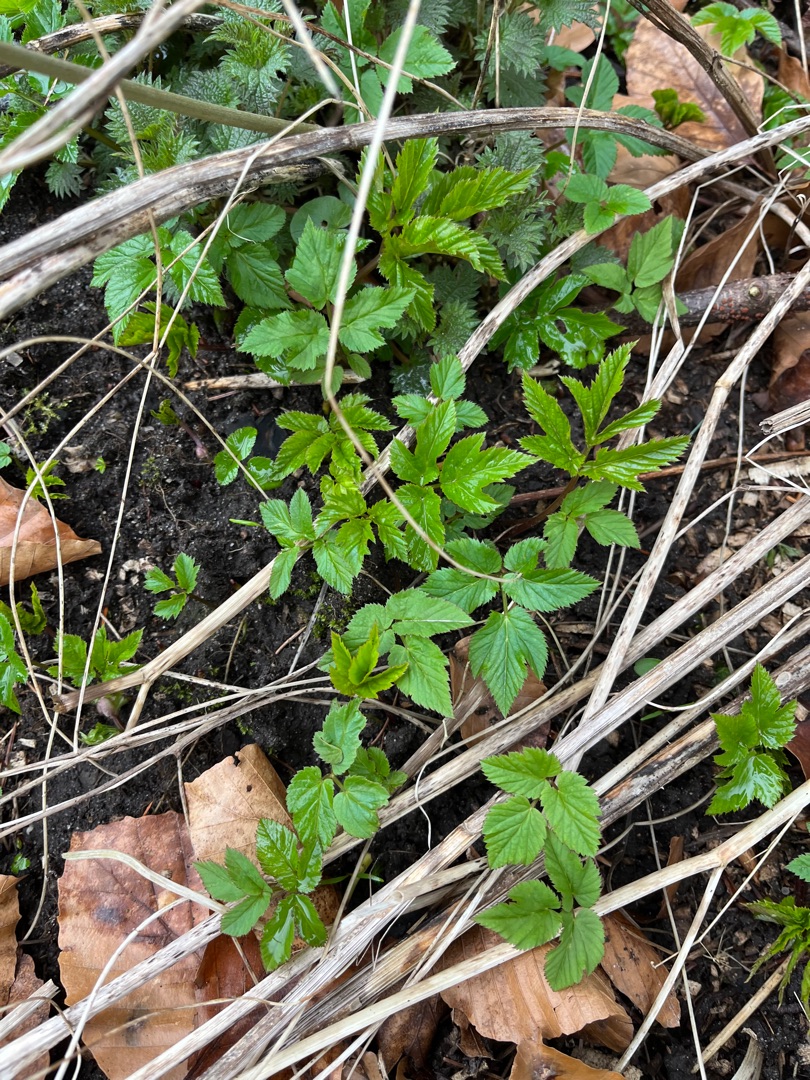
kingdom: Plantae
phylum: Tracheophyta
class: Magnoliopsida
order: Apiales
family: Apiaceae
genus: Aegopodium
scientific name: Aegopodium podagraria
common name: Skvalderkål
